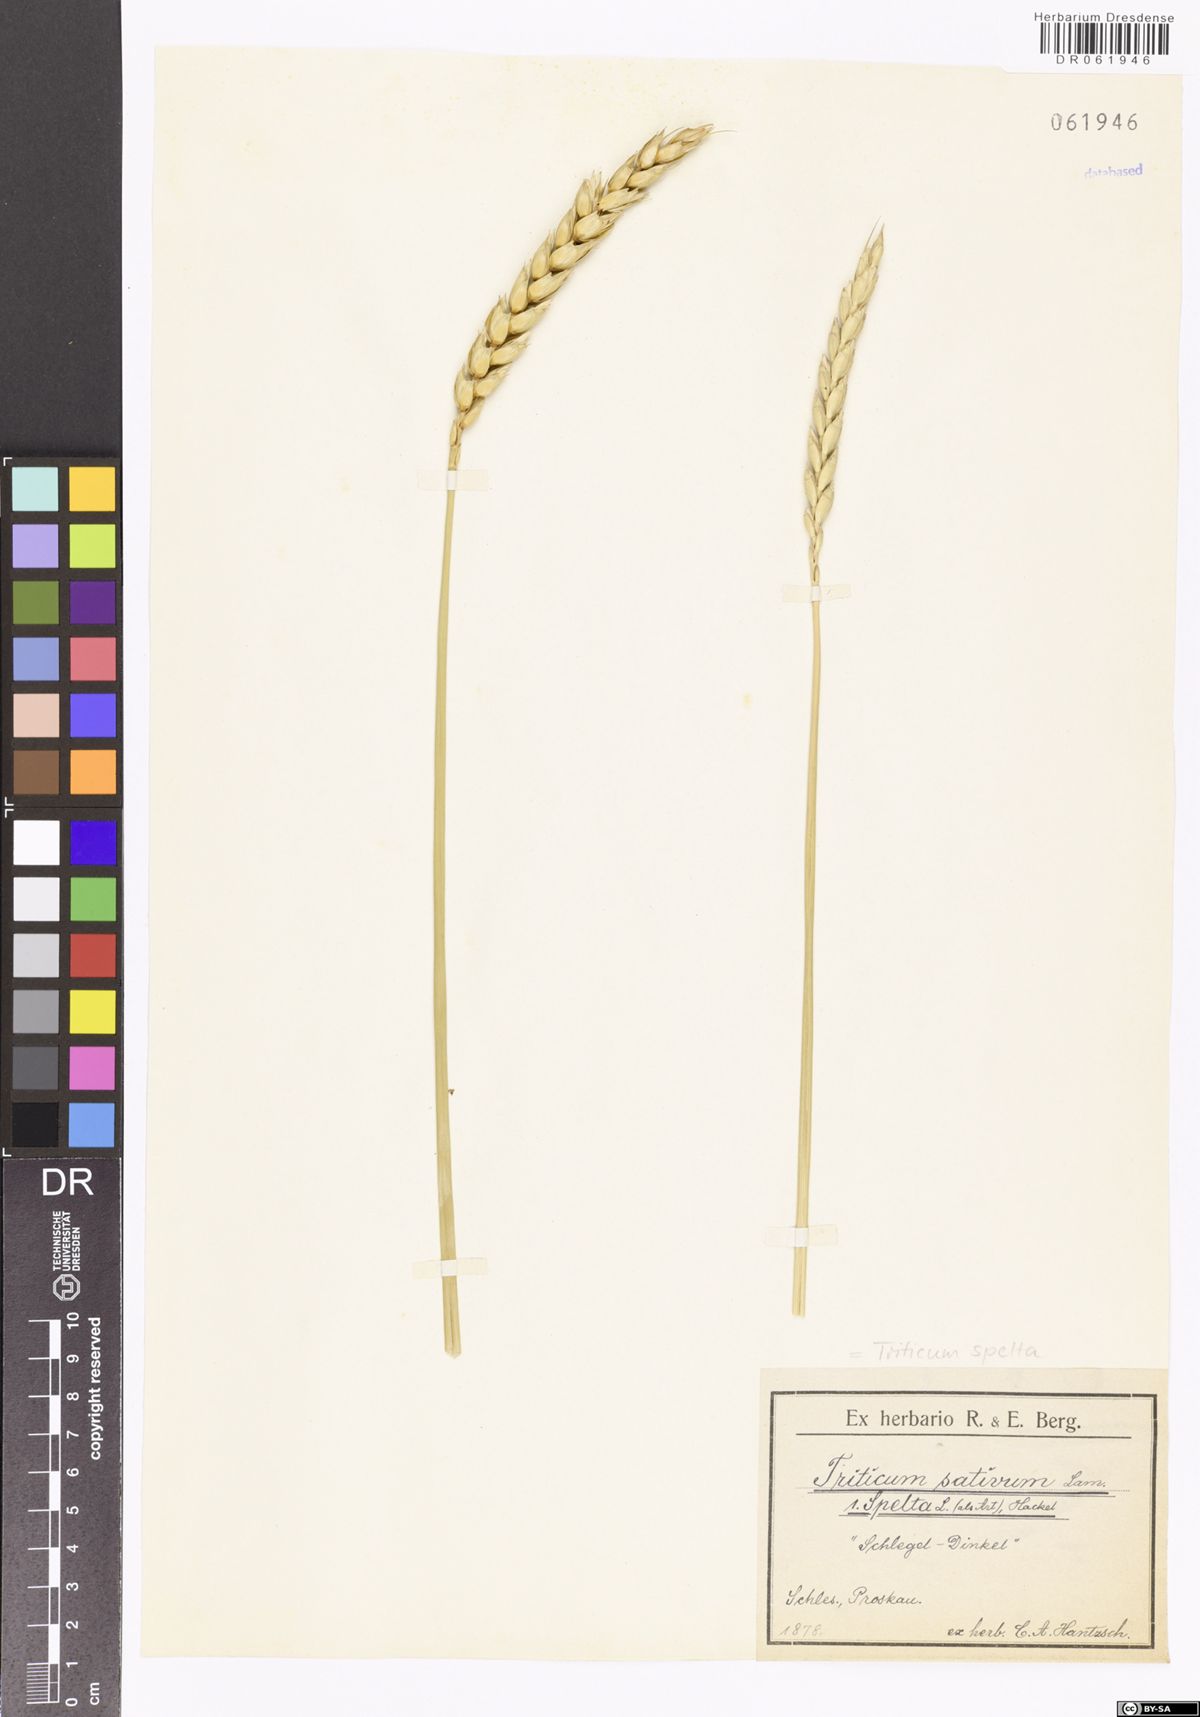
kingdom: Plantae
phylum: Tracheophyta
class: Liliopsida
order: Poales
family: Poaceae
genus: Triticum
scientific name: Triticum aestivum
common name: Common wheat
